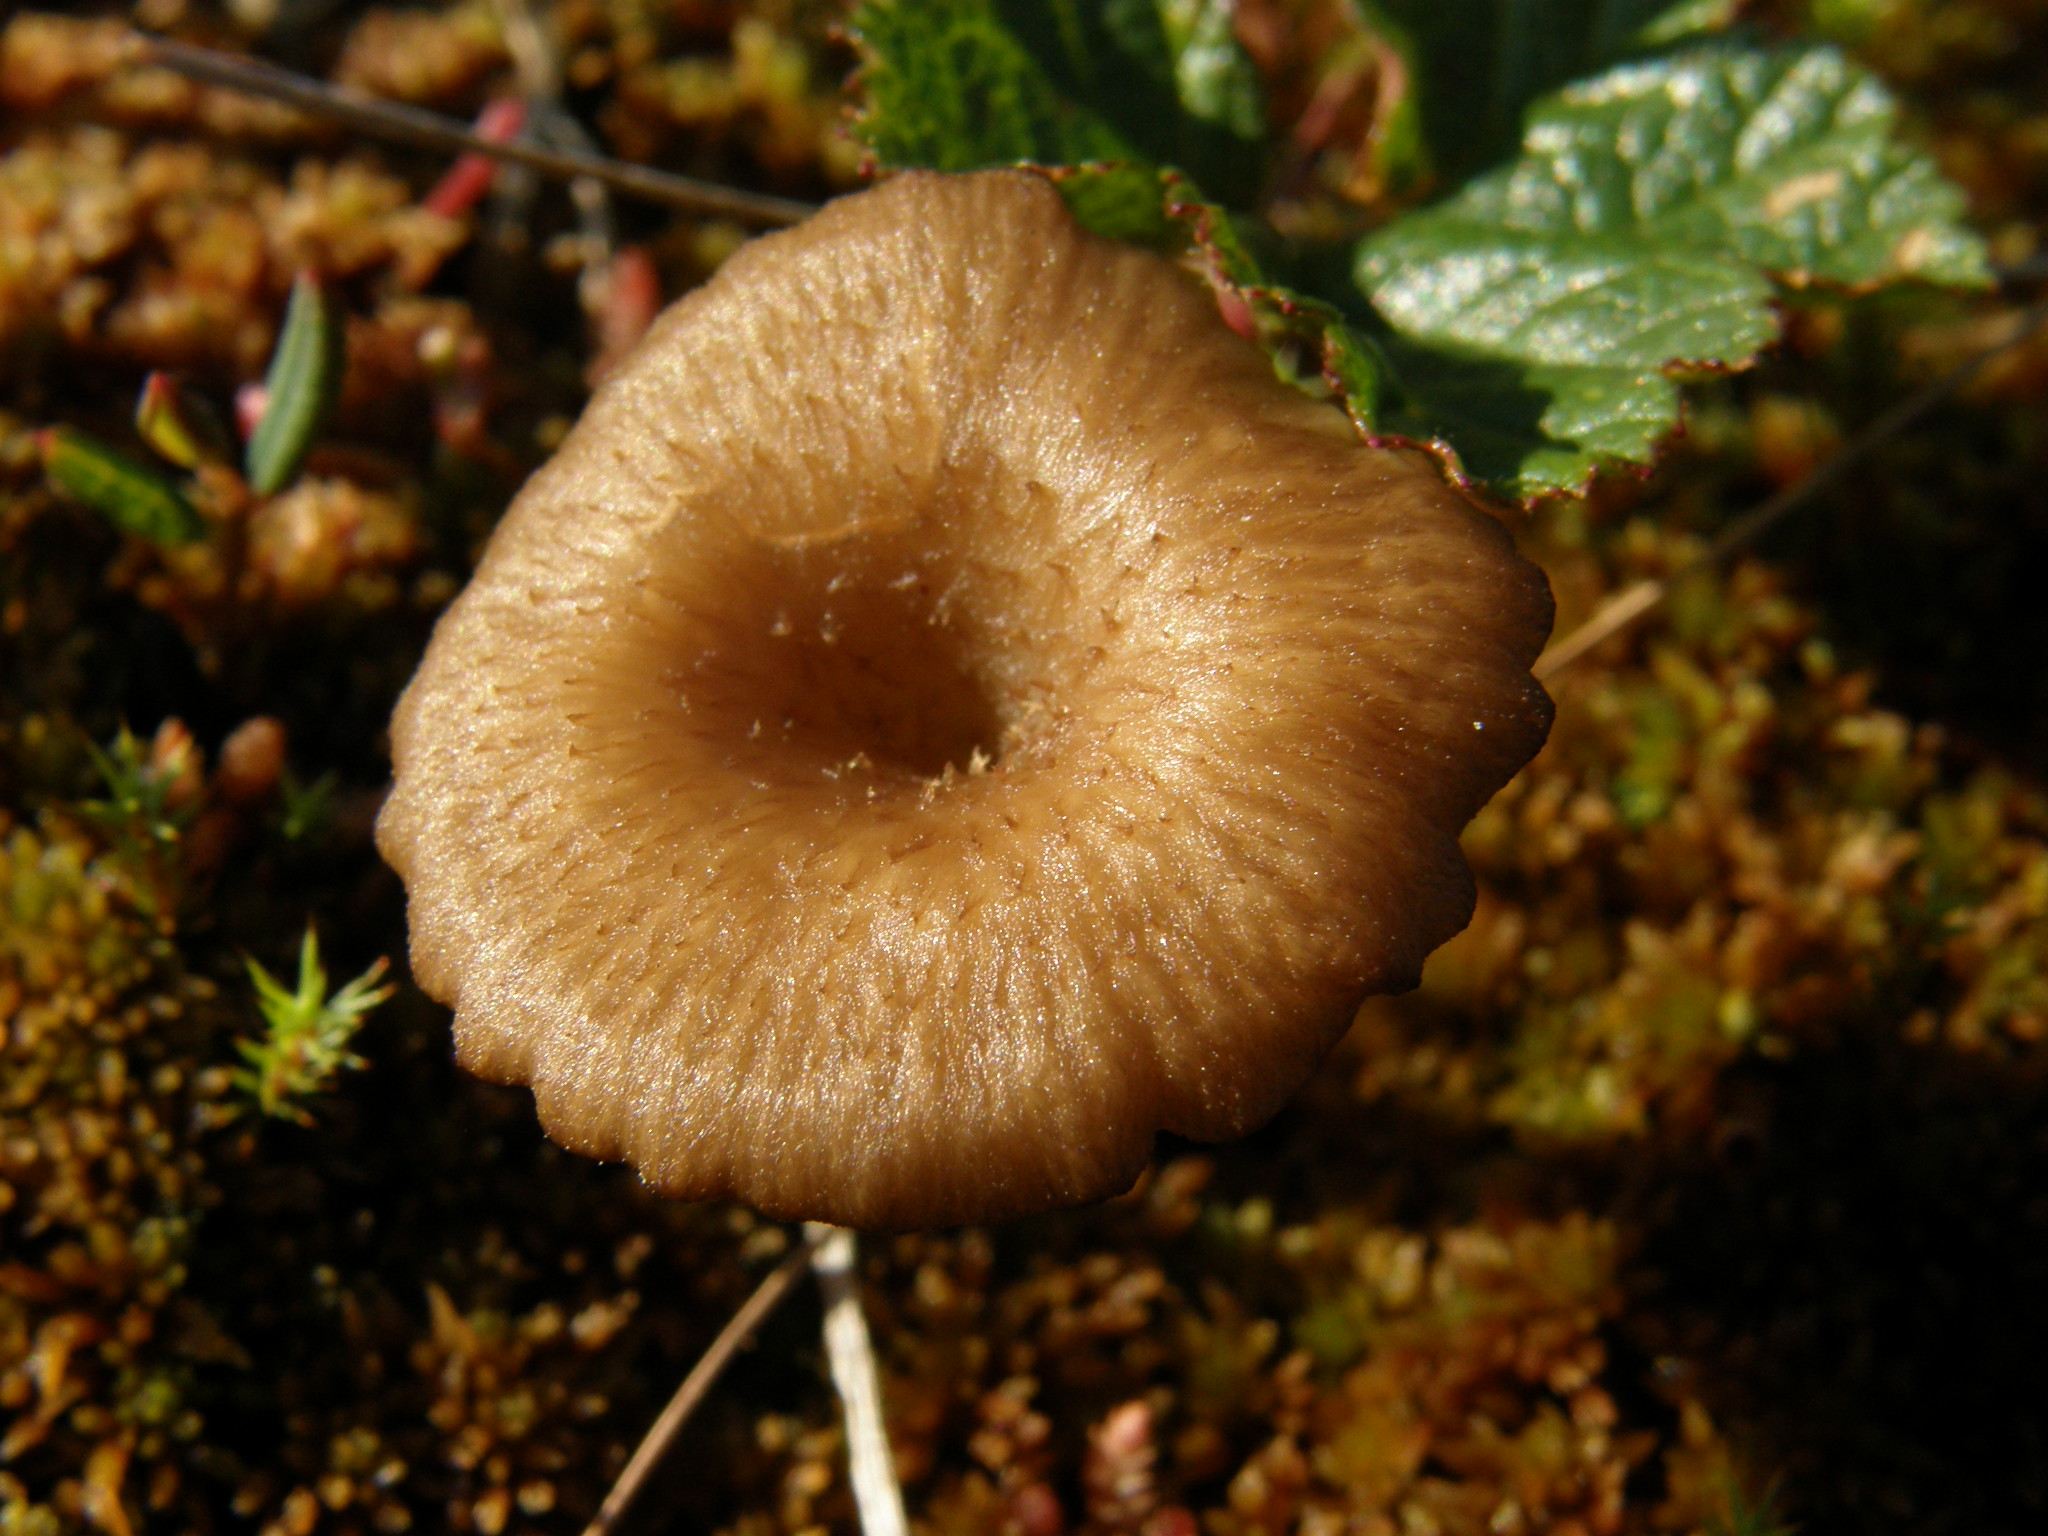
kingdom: Fungi
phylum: Basidiomycota
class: Agaricomycetes
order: Agaricales
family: Hygrophoraceae
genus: Lichenomphalia
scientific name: Lichenomphalia umbellifera
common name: Heath navel
